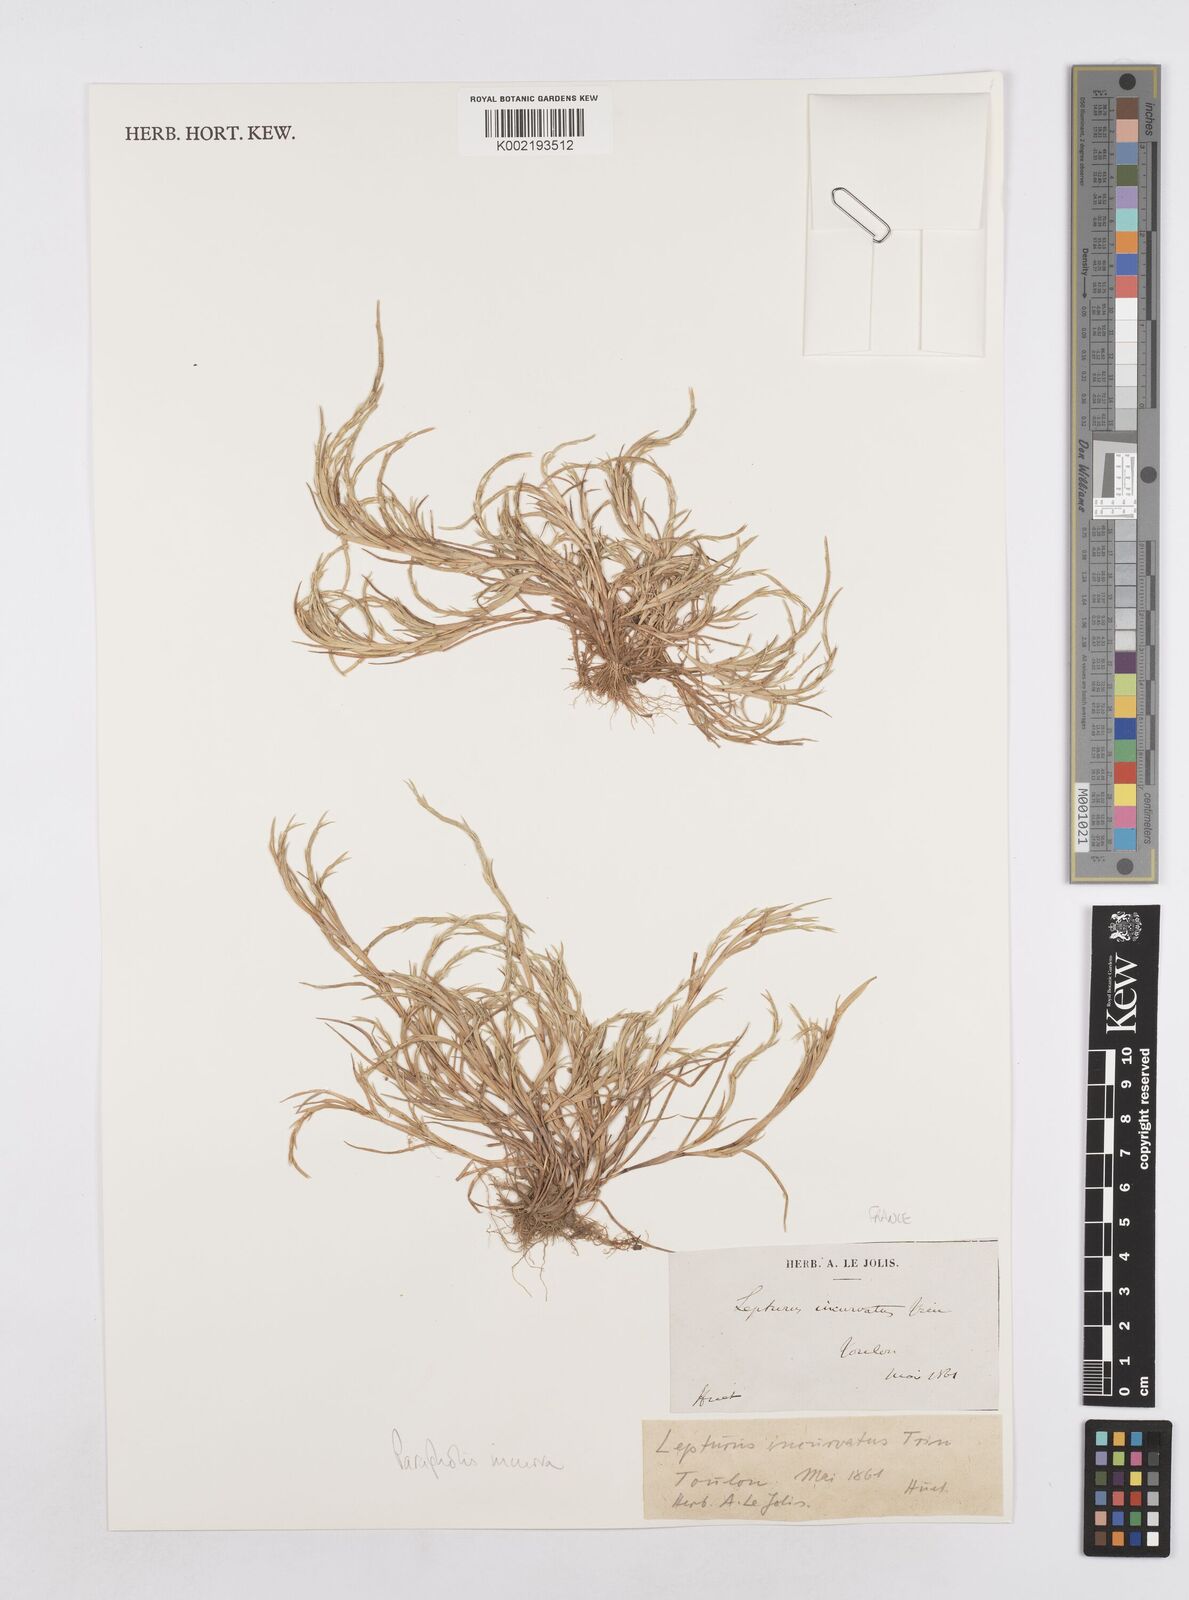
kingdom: Plantae
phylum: Tracheophyta
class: Liliopsida
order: Poales
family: Poaceae
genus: Parapholis
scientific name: Parapholis incurva
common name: Curved sicklegrass
